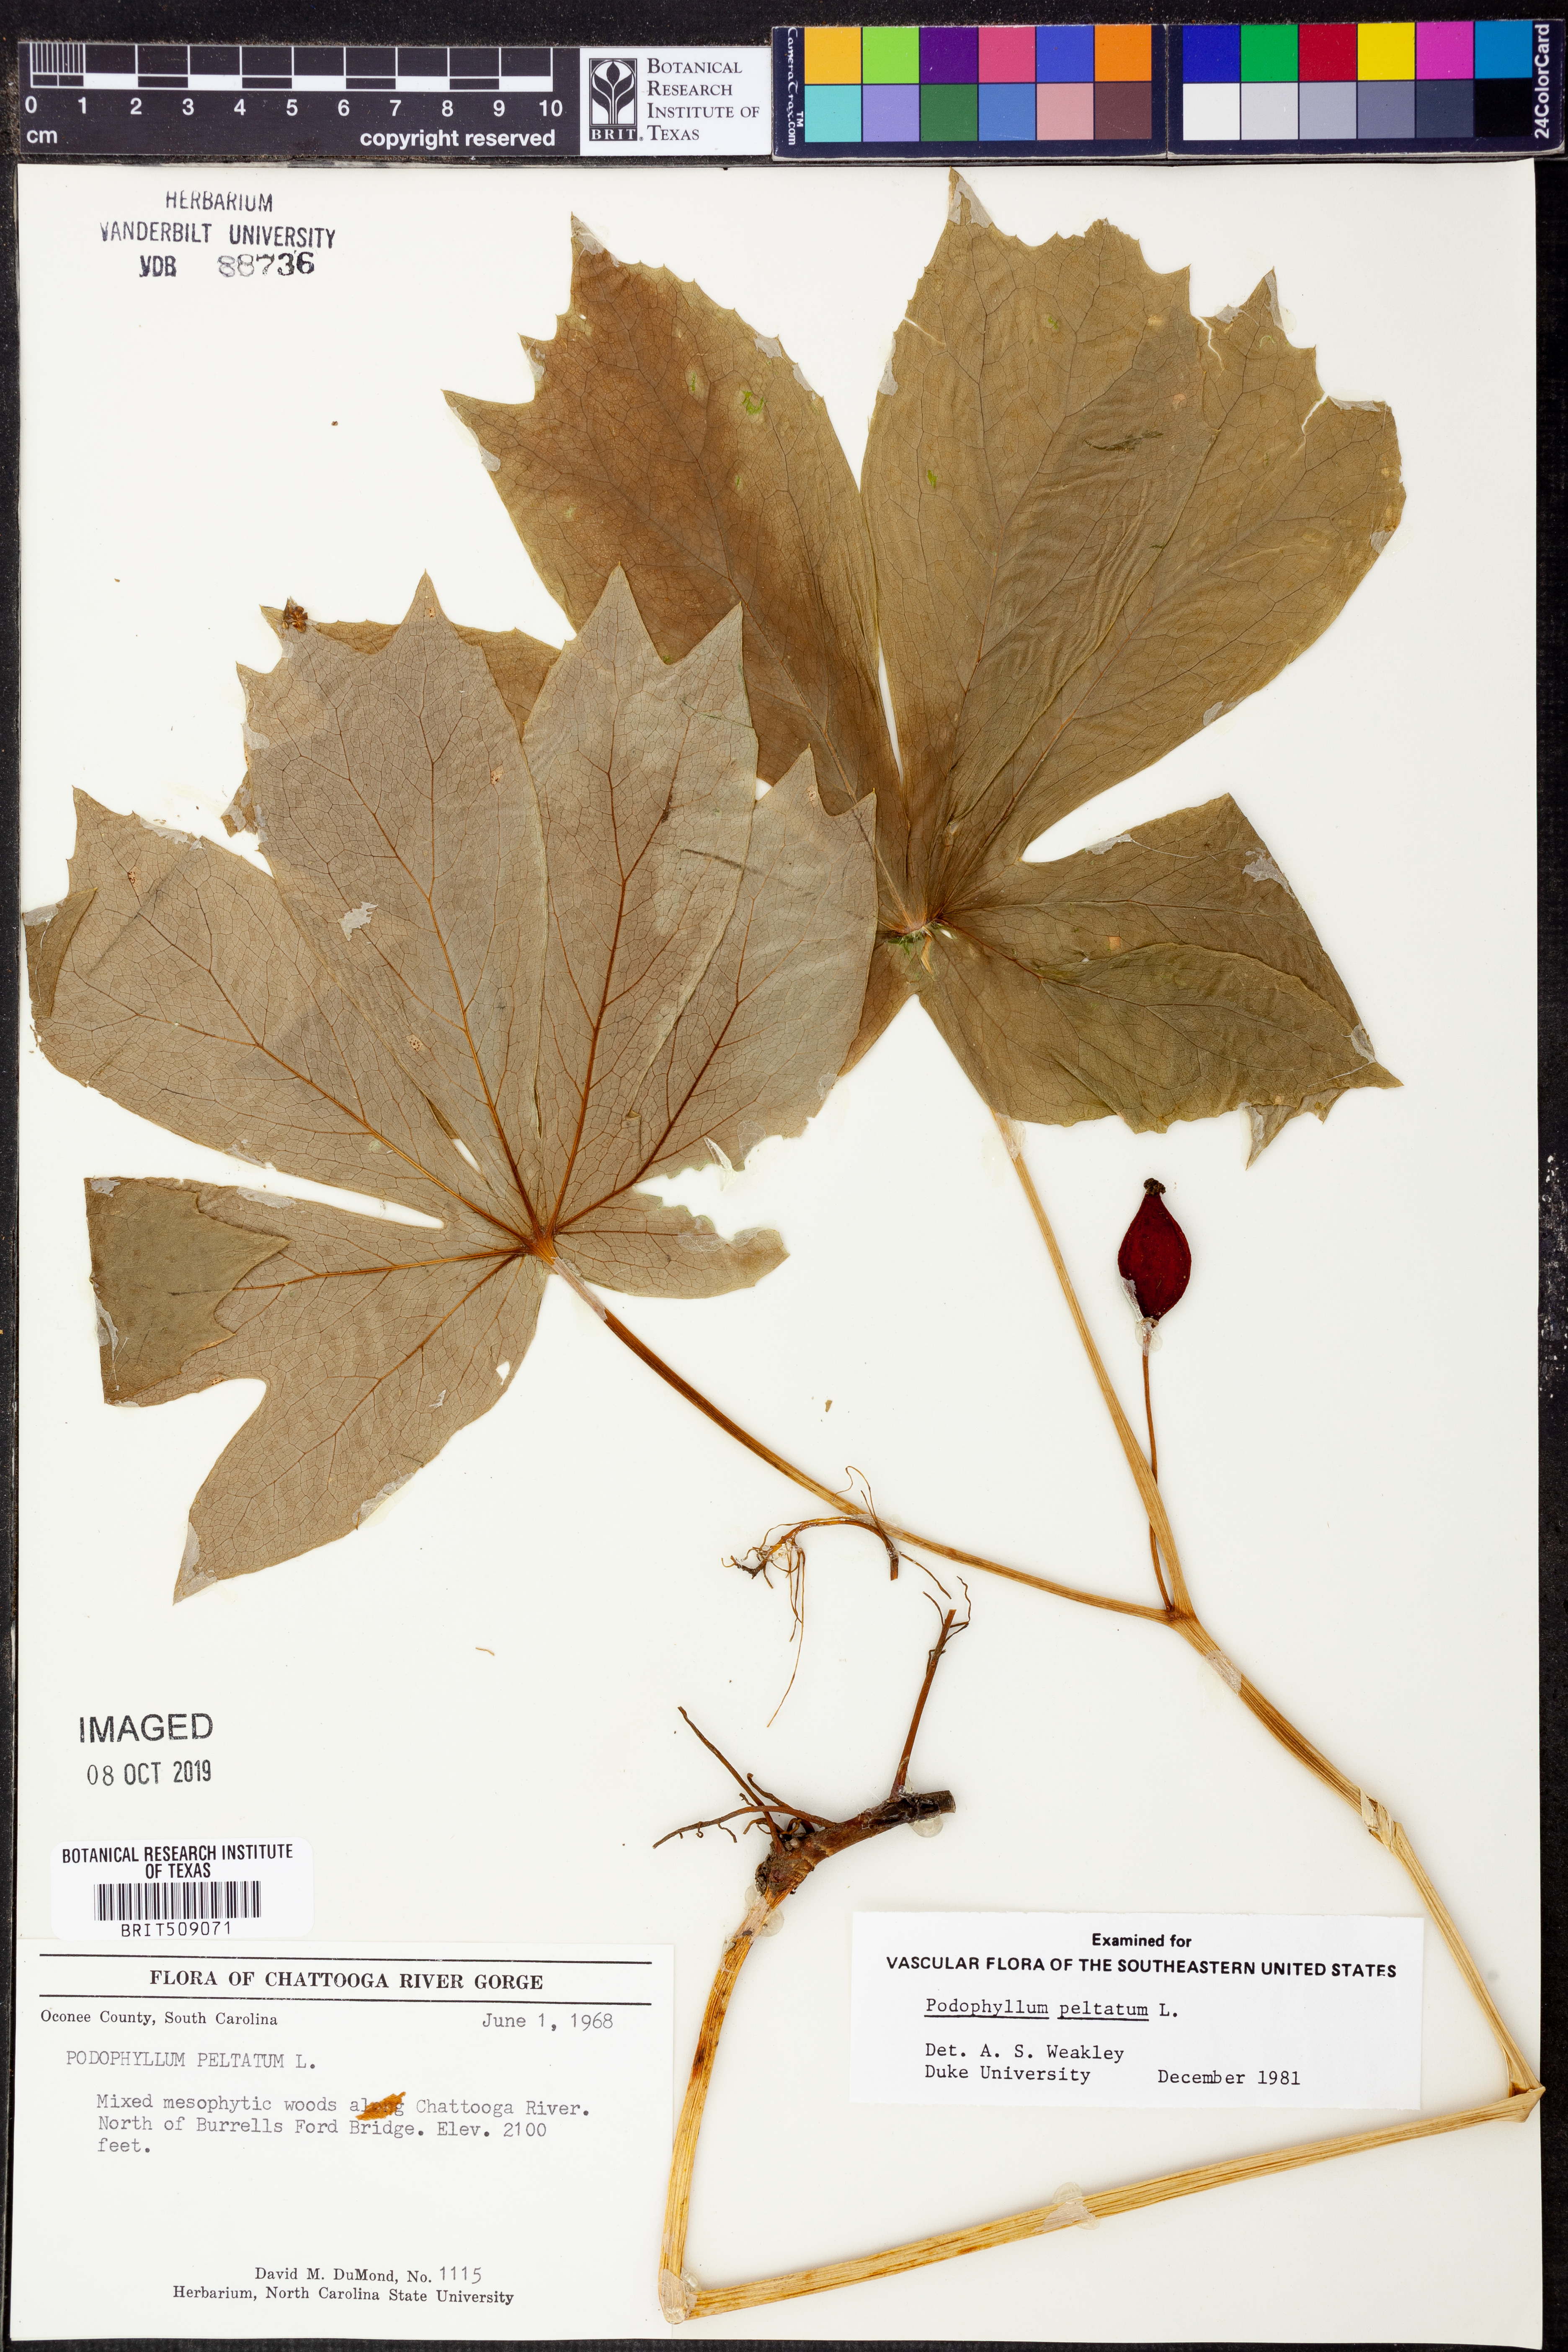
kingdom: Plantae
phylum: Tracheophyta
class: Magnoliopsida
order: Ranunculales
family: Berberidaceae
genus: Podophyllum
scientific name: Podophyllum peltatum
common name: Wild mandrake
